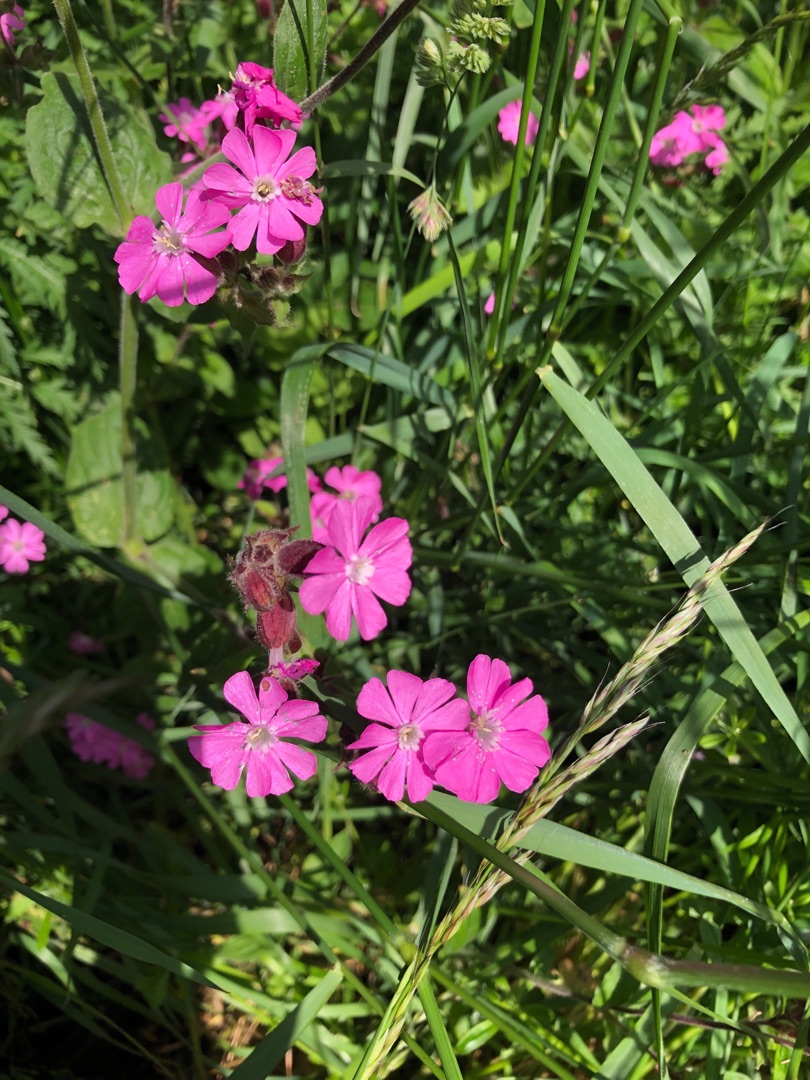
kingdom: Plantae
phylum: Tracheophyta
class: Magnoliopsida
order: Caryophyllales
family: Caryophyllaceae
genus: Silene
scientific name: Silene dioica
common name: Dagpragtstjerne
